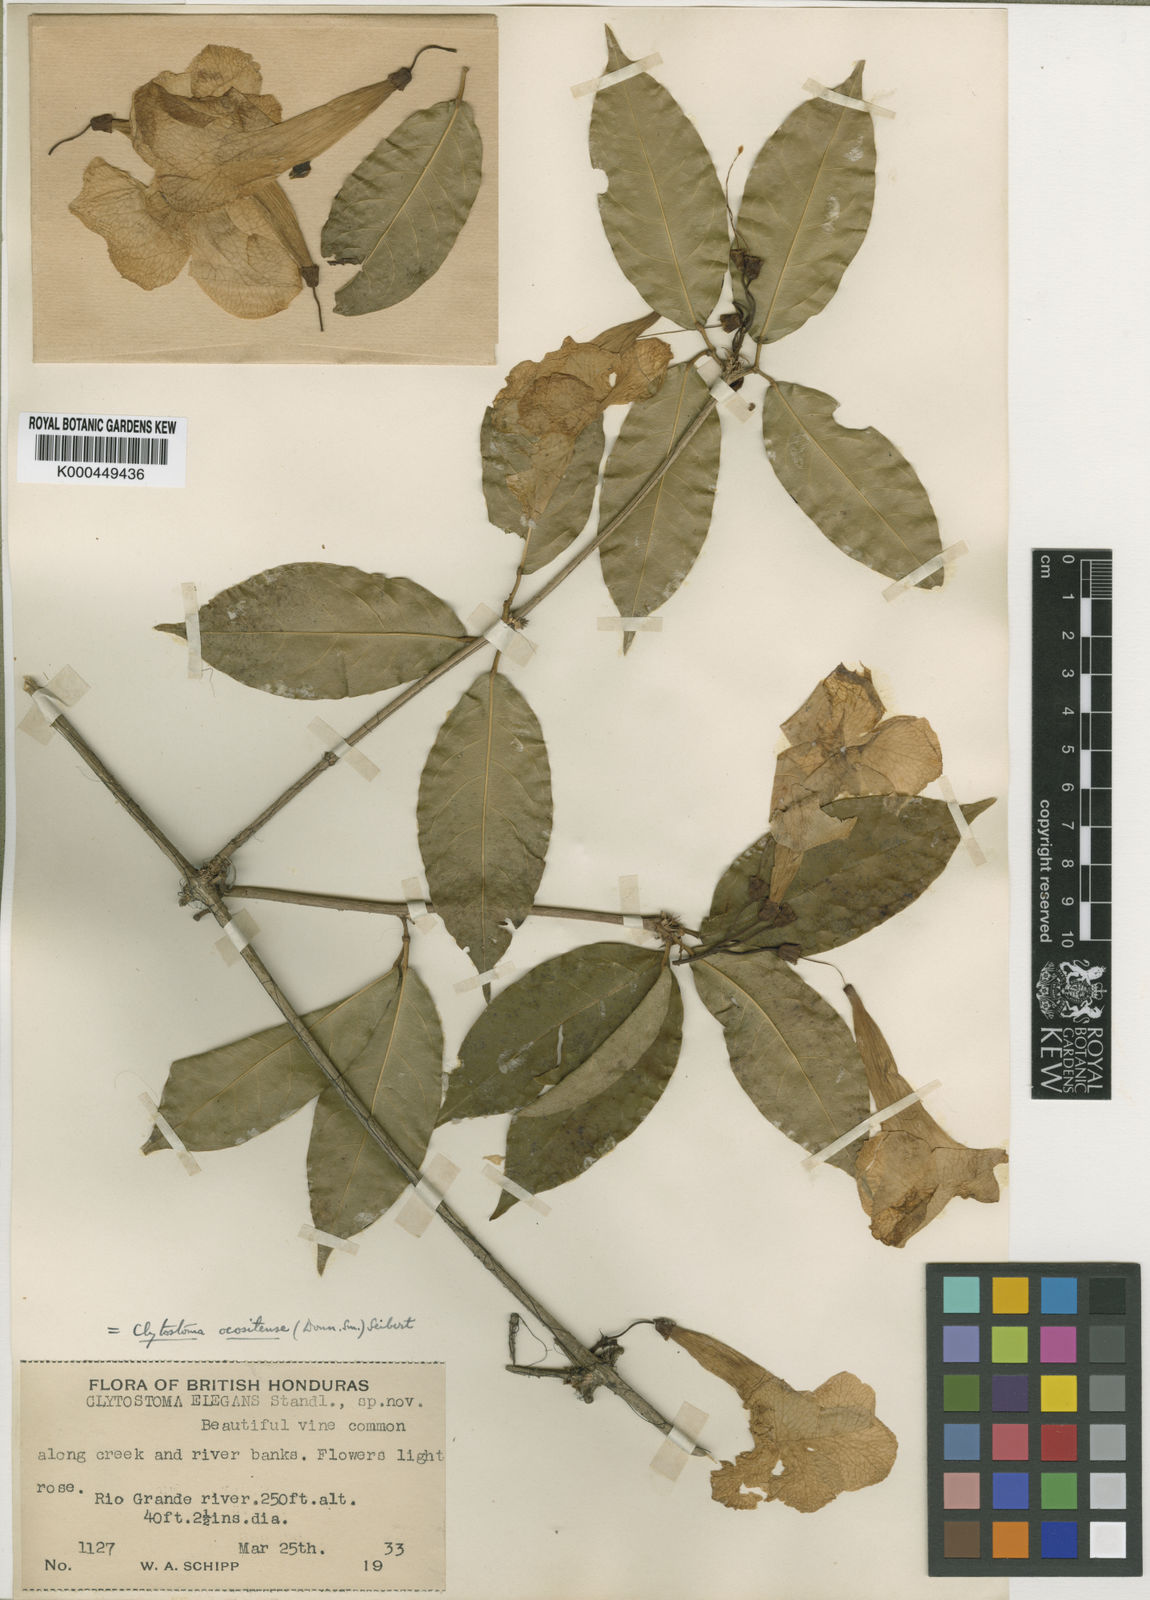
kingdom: Plantae
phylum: Tracheophyta
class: Magnoliopsida
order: Lamiales
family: Bignoniaceae
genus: Bignonia
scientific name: Bignonia noterophila
